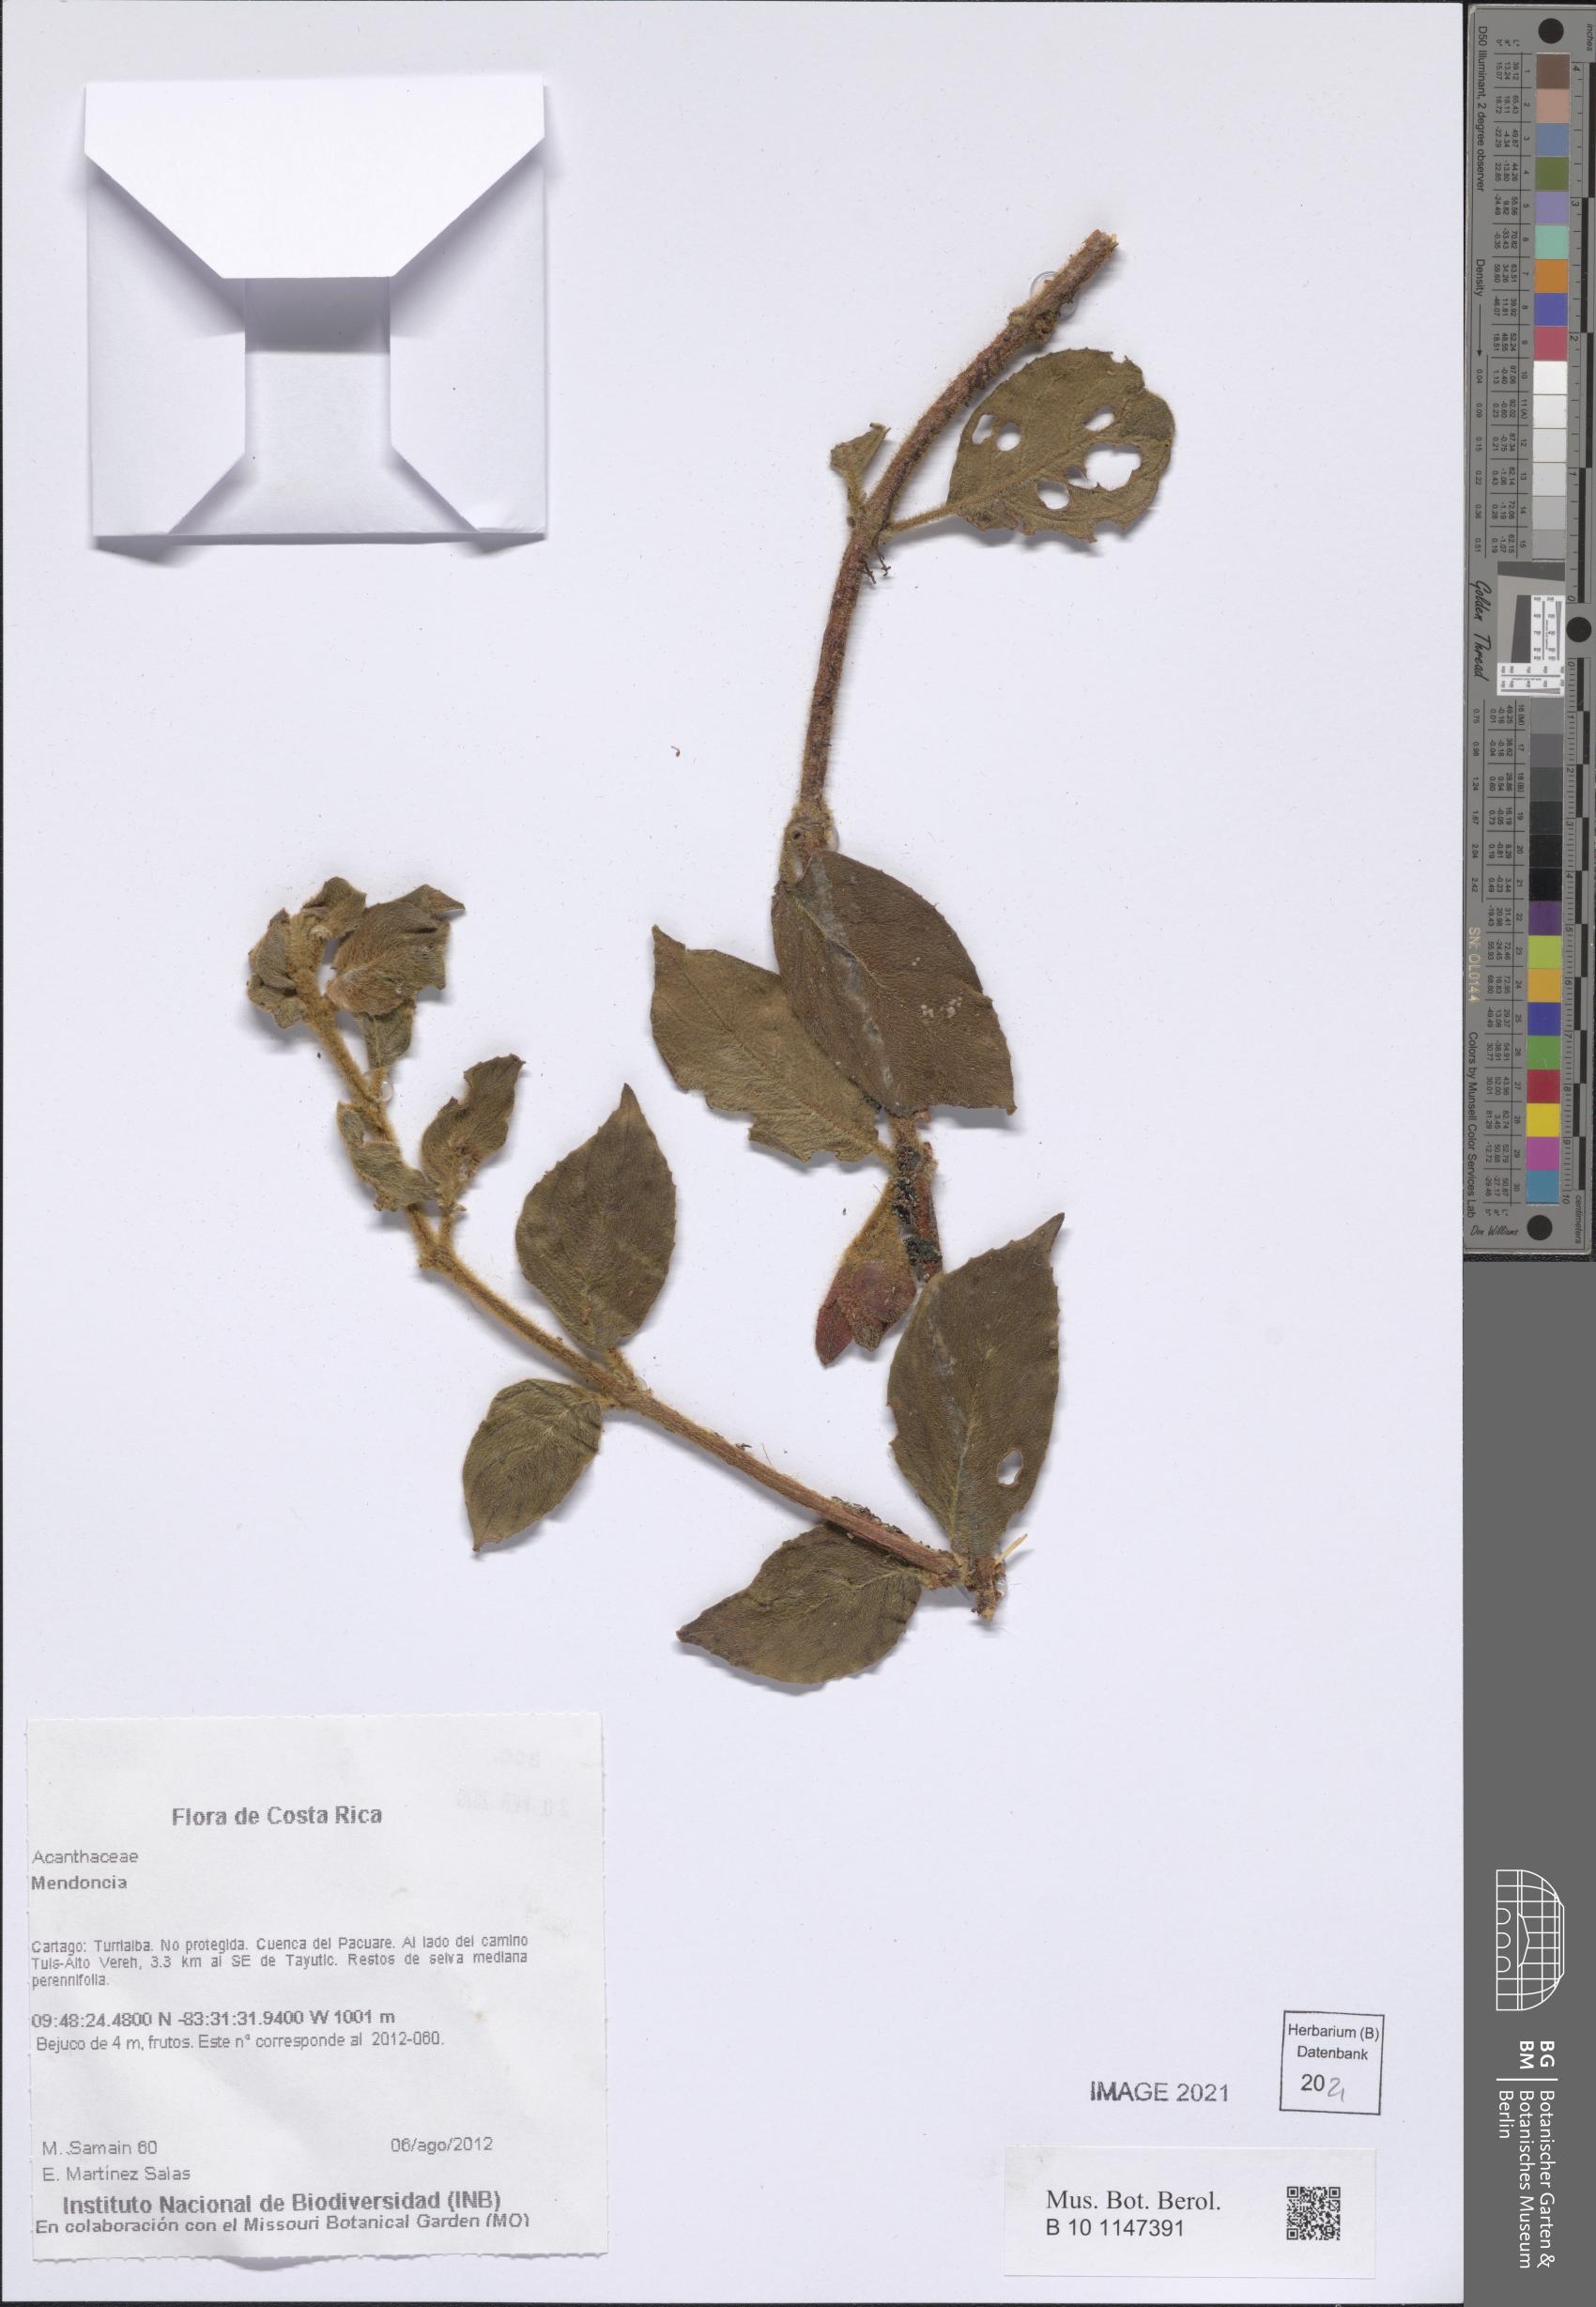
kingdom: Plantae
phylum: Tracheophyta
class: Magnoliopsida
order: Lamiales
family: Acanthaceae
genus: Mendoncia
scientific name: Mendoncia
